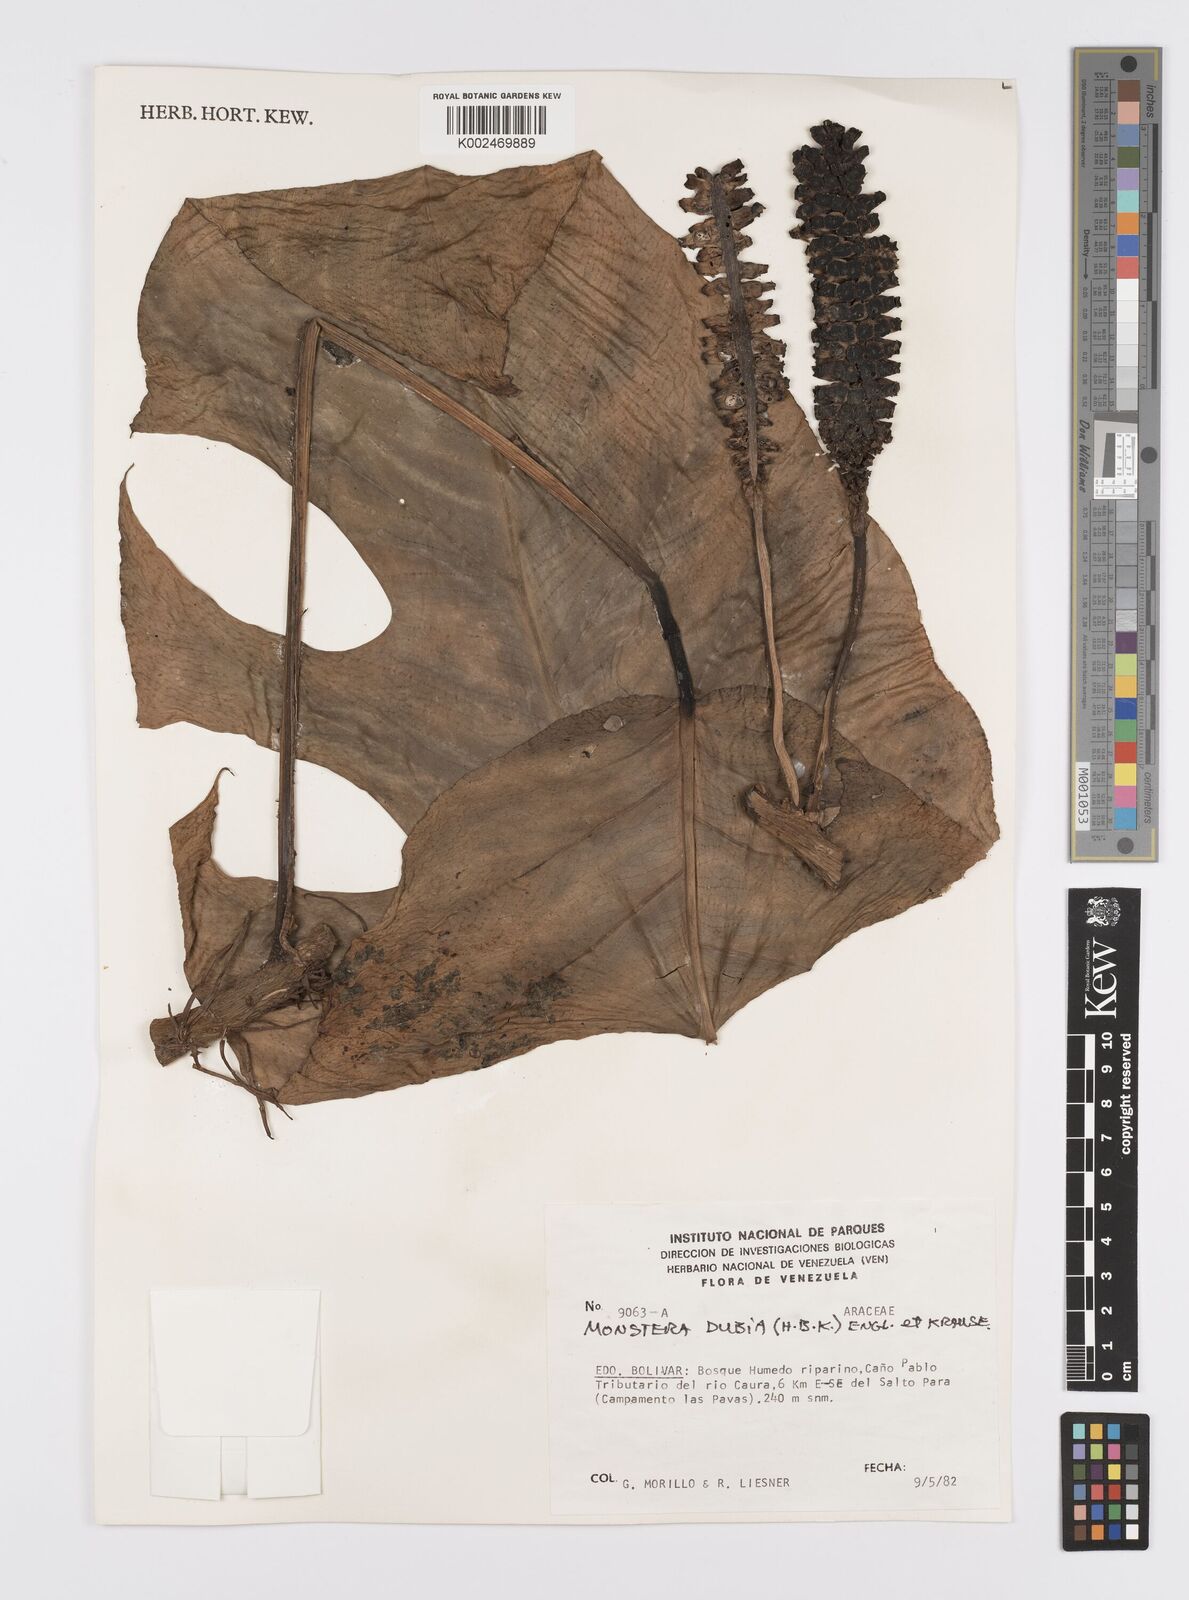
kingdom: Plantae
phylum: Tracheophyta
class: Liliopsida
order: Alismatales
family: Araceae
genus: Monstera
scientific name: Monstera dubia
